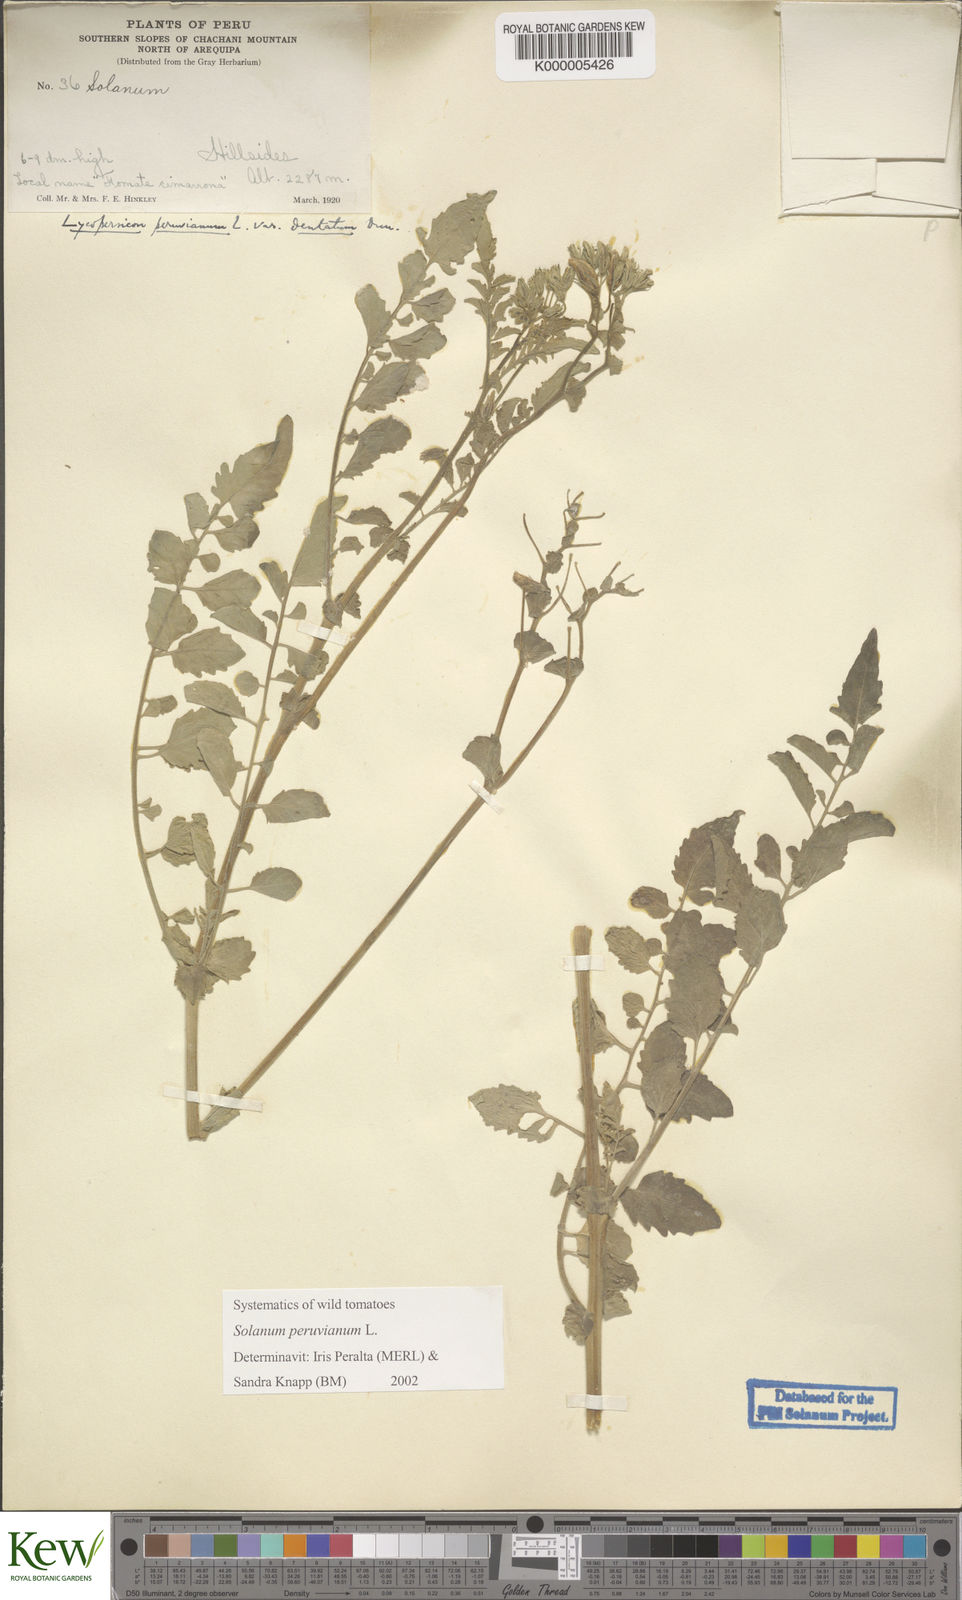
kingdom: Plantae
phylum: Tracheophyta
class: Magnoliopsida
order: Solanales
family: Solanaceae
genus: Solanum
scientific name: Solanum peruvianum
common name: Peruvian nightshade
